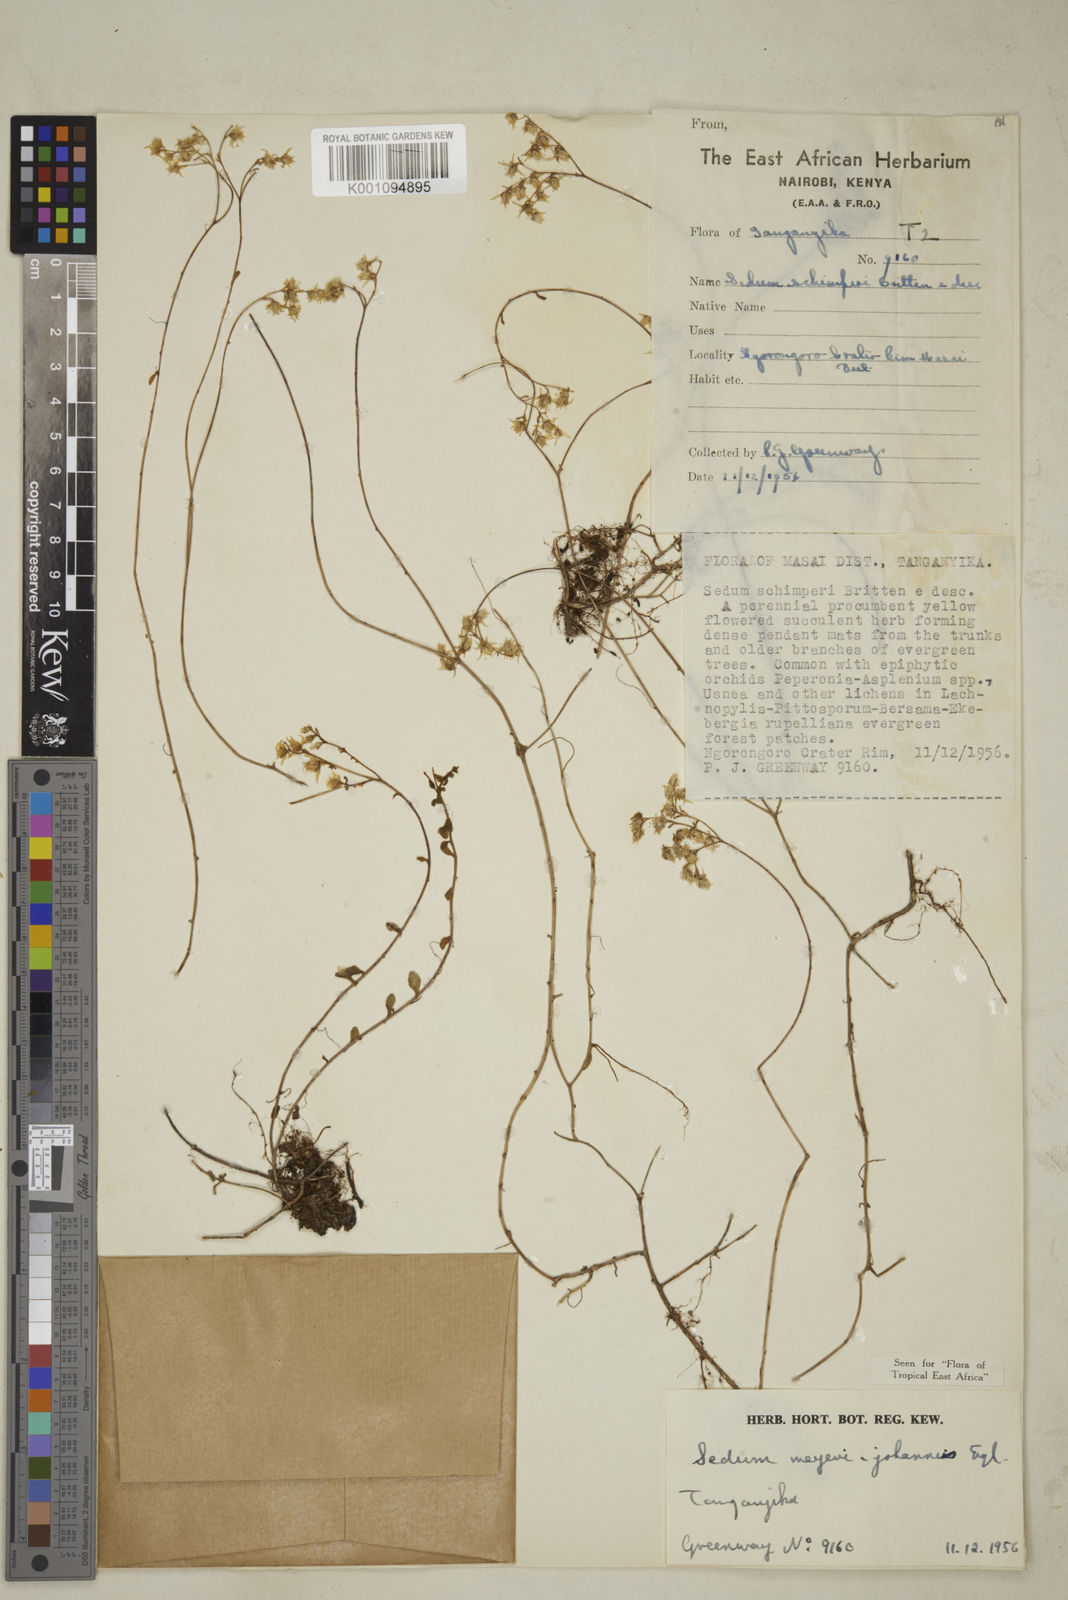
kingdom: Plantae
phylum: Tracheophyta
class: Magnoliopsida
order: Saxifragales
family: Crassulaceae
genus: Sedum
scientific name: Sedum meyeri-johannis
